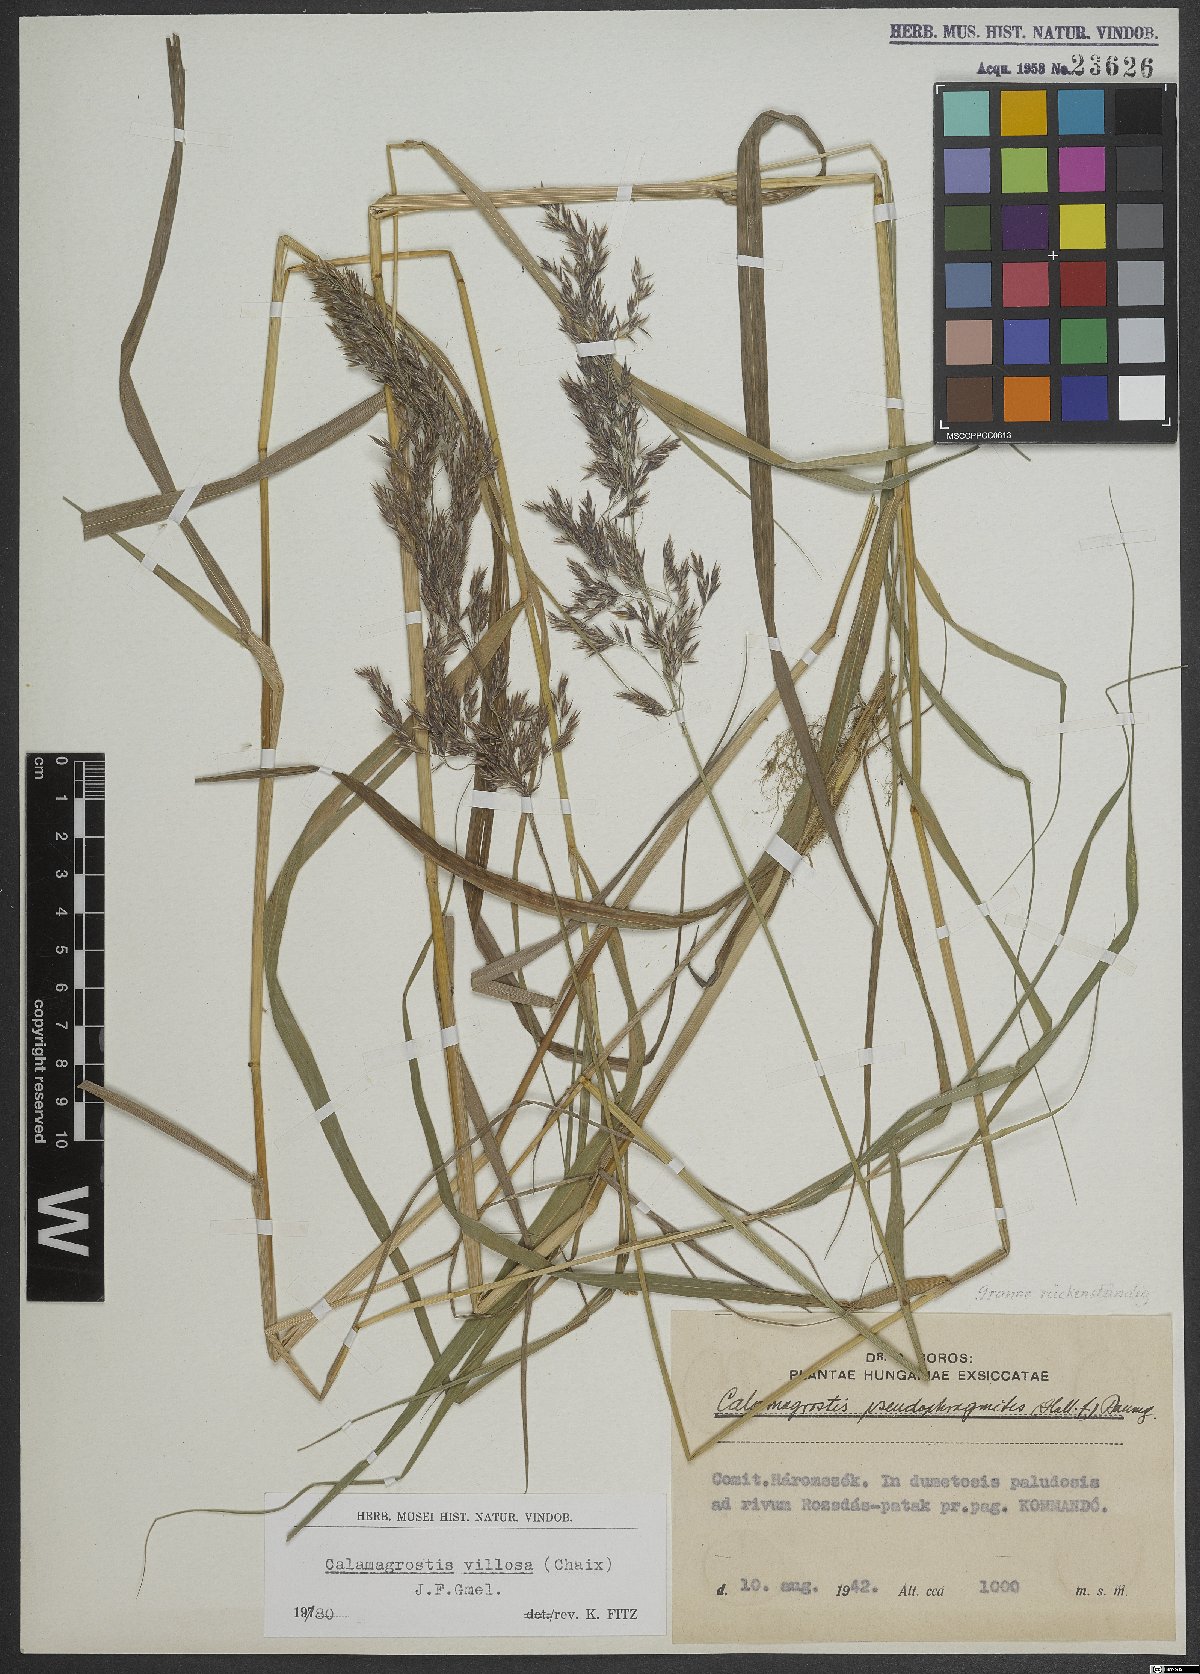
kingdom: Plantae
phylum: Tracheophyta
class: Liliopsida
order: Poales
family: Poaceae
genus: Calamagrostis
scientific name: Calamagrostis purpurea
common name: Scandinavian small-reed
